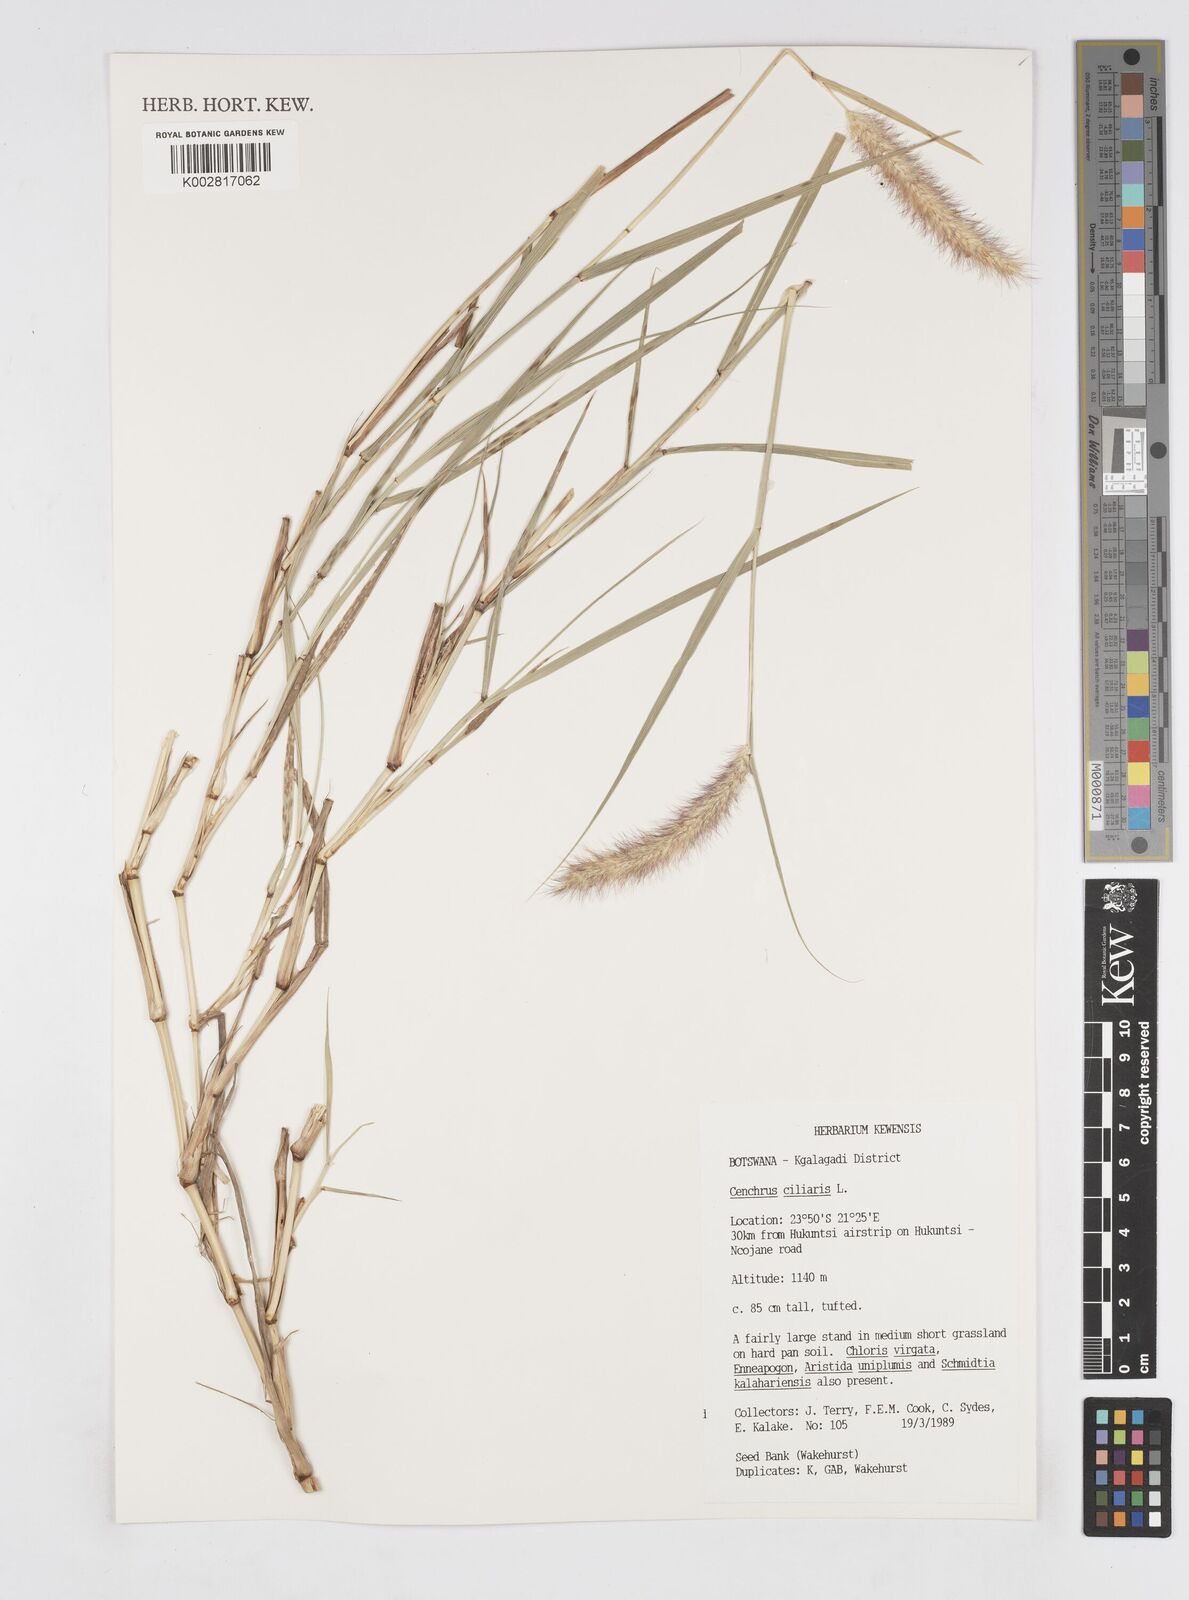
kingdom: Plantae
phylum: Tracheophyta
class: Liliopsida
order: Poales
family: Poaceae
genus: Cenchrus
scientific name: Cenchrus ciliaris
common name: Buffelgrass
